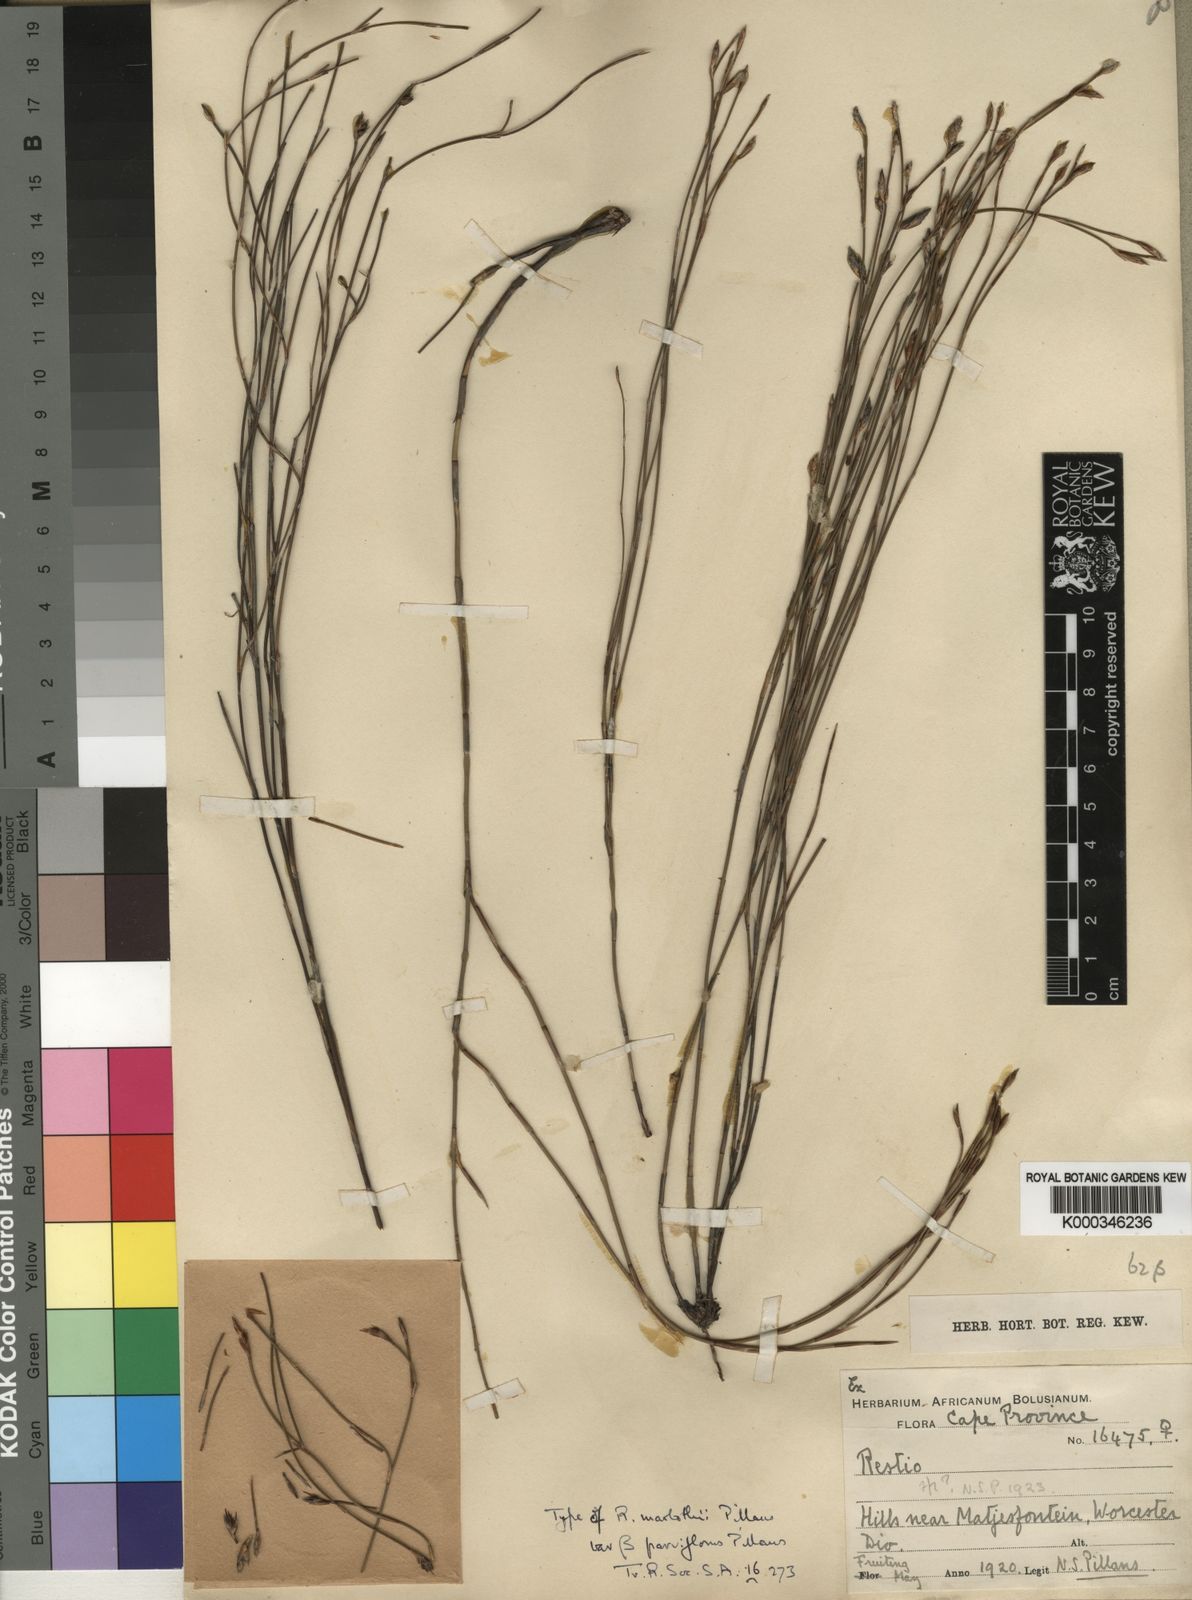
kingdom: Plantae
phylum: Tracheophyta
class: Liliopsida
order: Poales
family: Restionaceae
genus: Restio
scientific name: Restio marlothii
